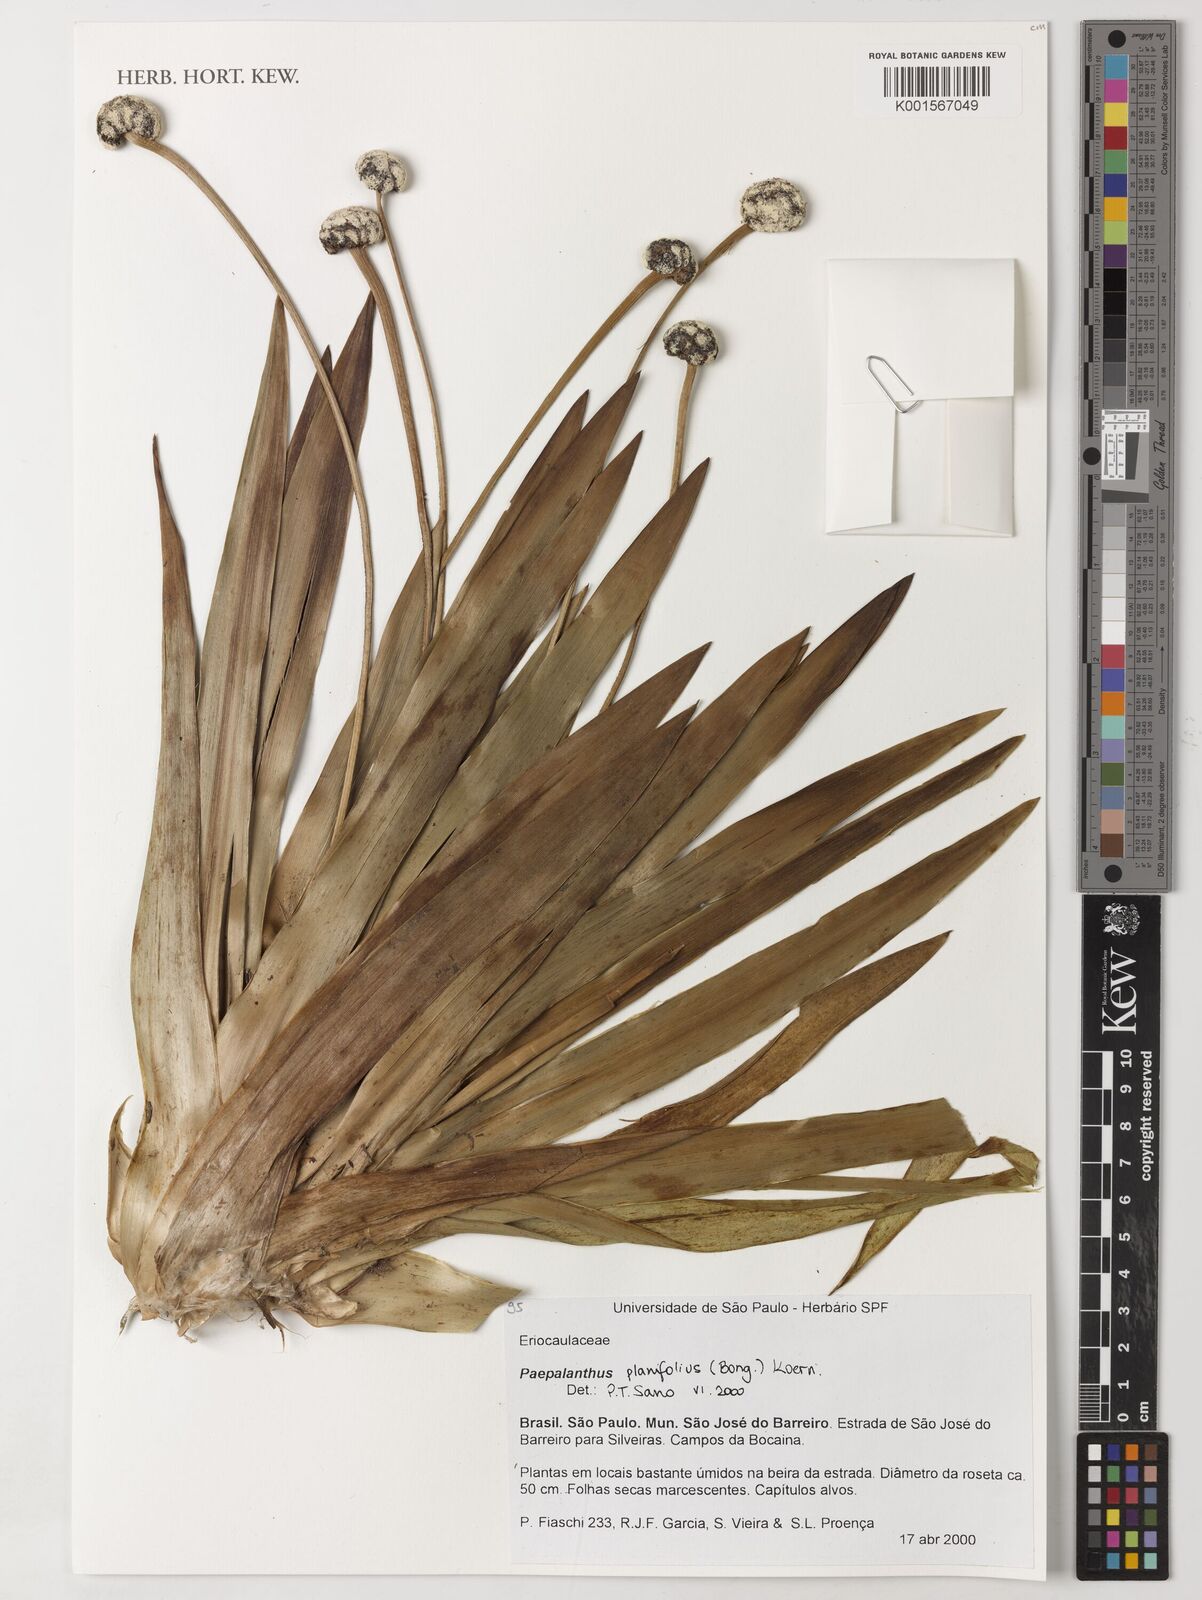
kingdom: Plantae
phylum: Tracheophyta
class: Liliopsida
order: Poales
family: Eriocaulaceae
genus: Paepalanthus
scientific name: Paepalanthus planifolius
